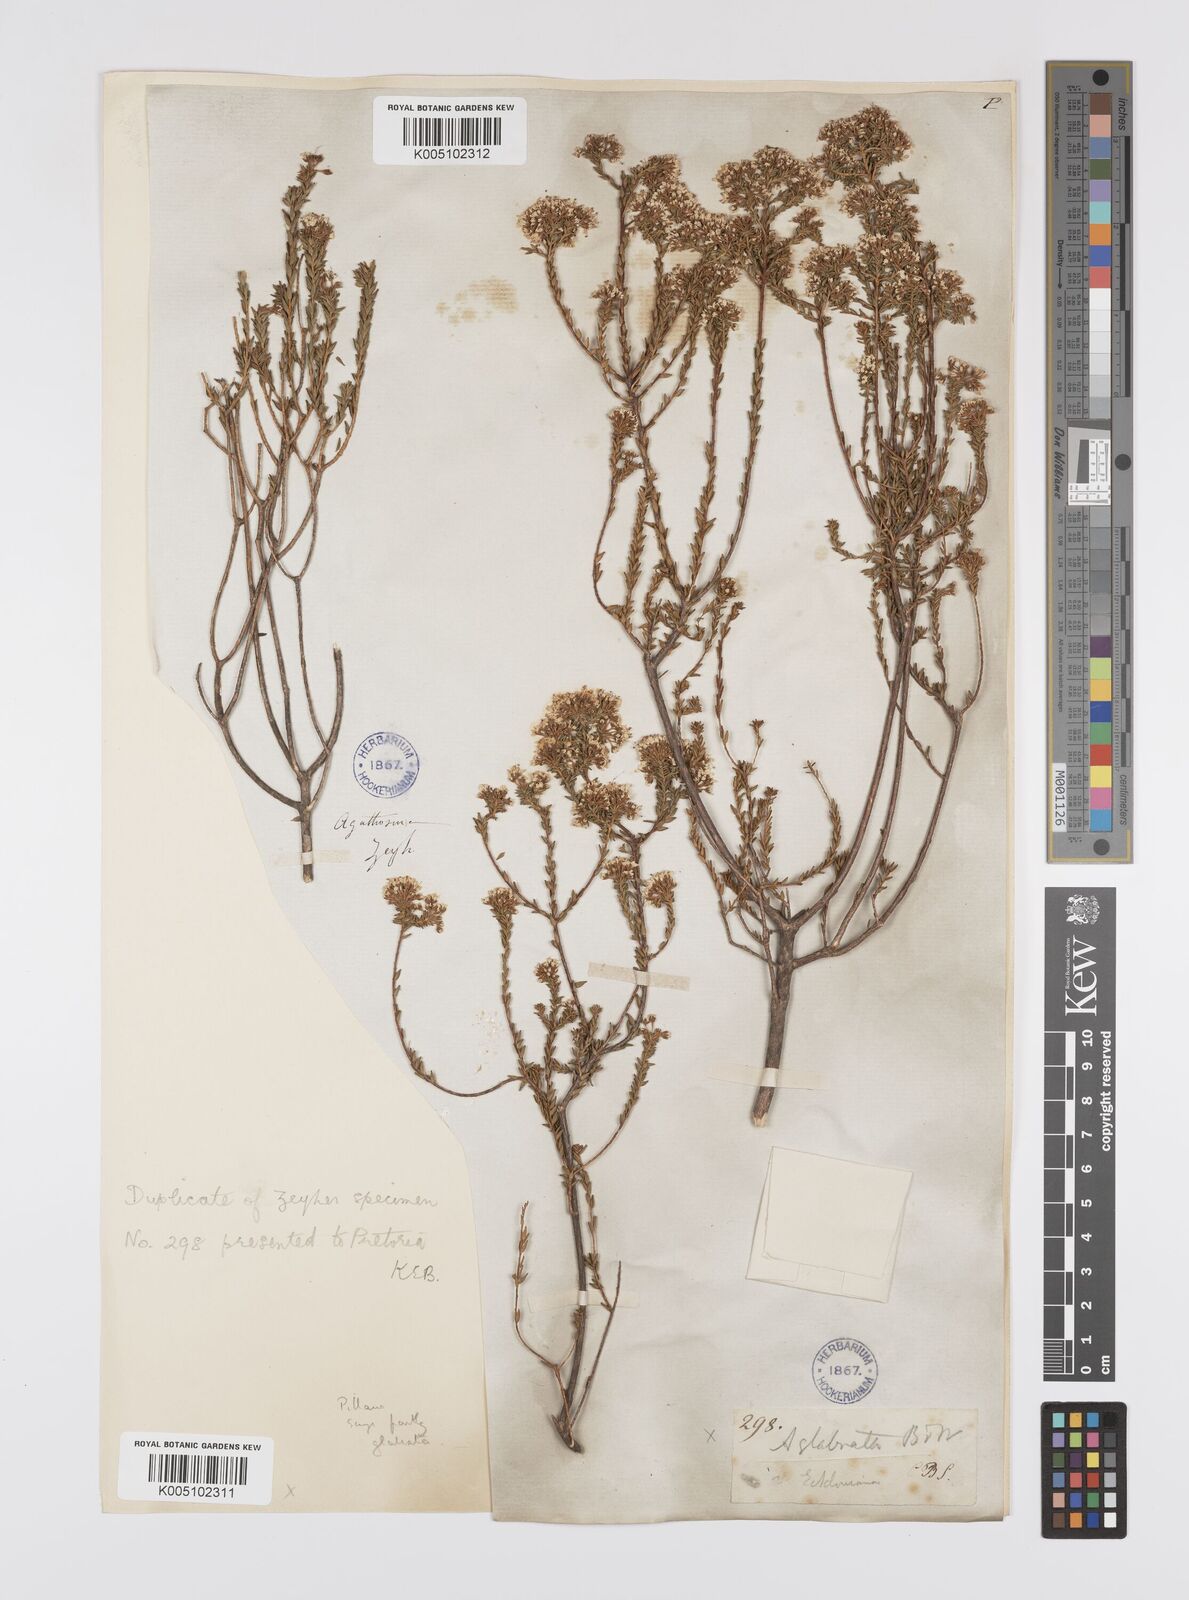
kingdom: Plantae
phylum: Tracheophyta
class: Magnoliopsida
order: Sapindales
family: Rutaceae
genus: Agathosma
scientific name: Agathosma
